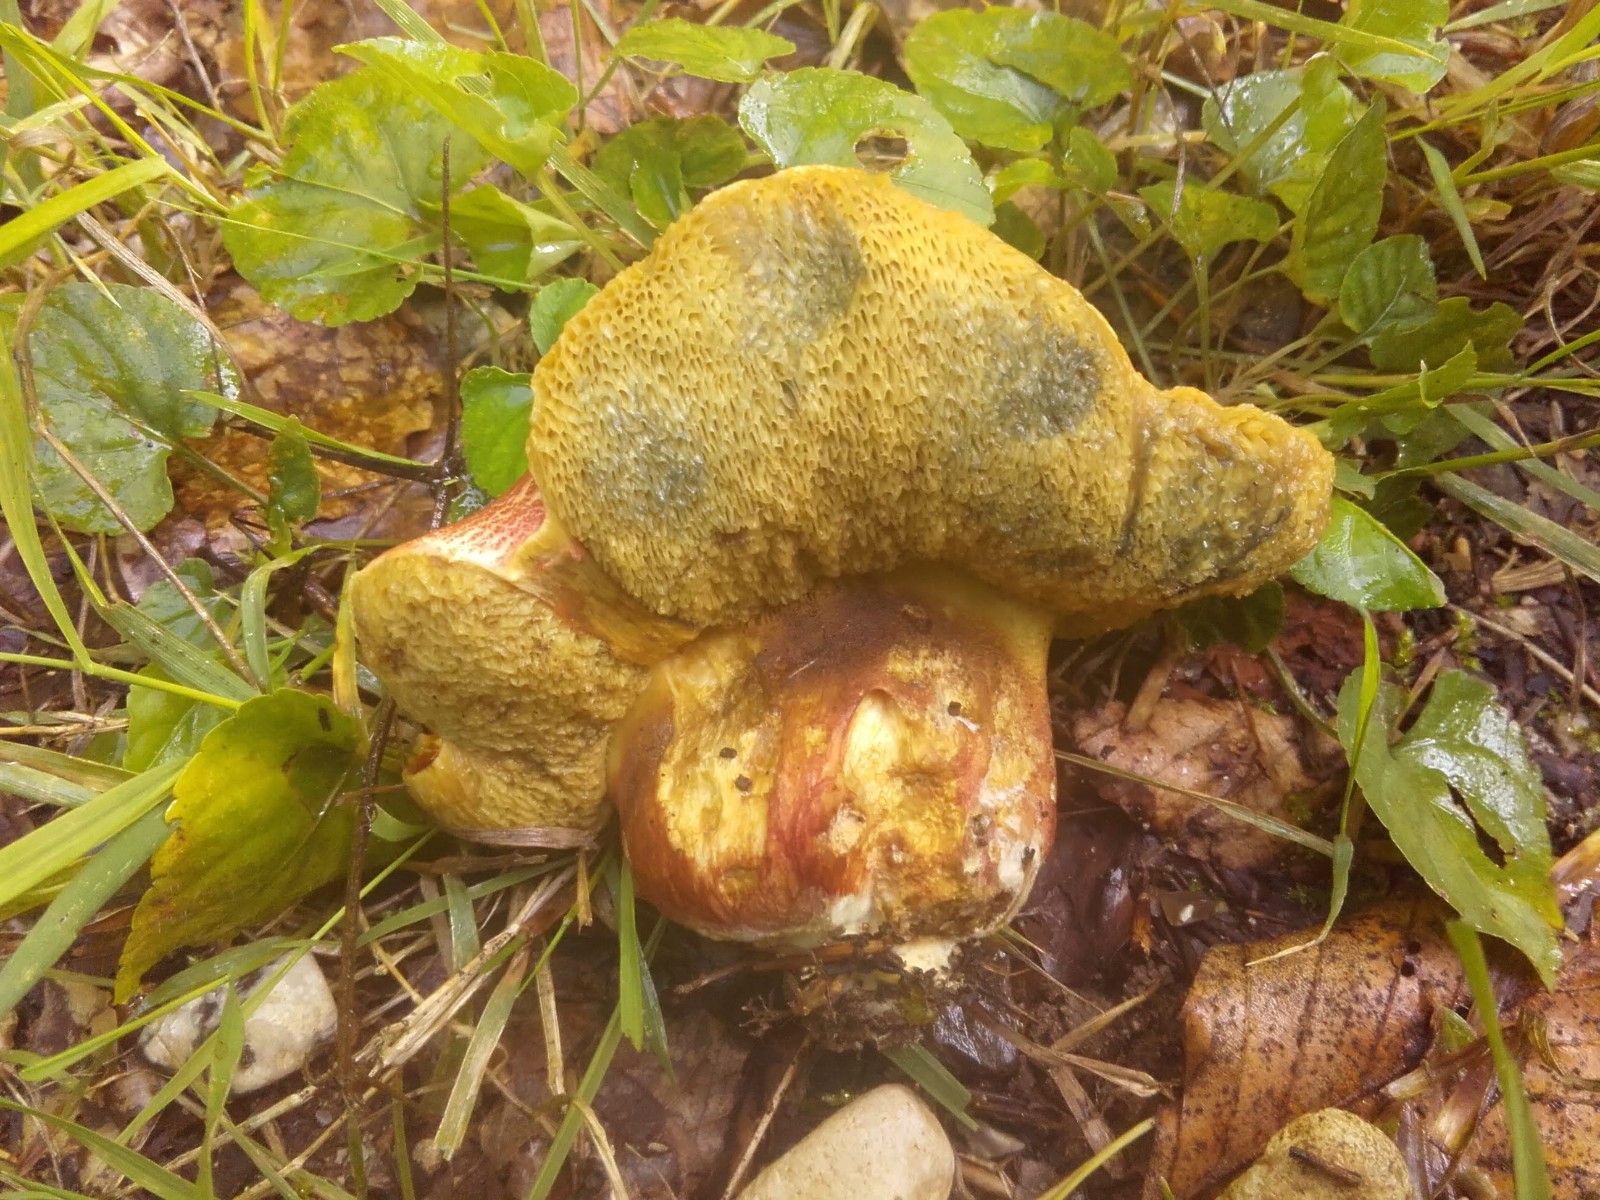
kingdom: Fungi
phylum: Basidiomycota
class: Agaricomycetes
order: Boletales
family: Boletaceae
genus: Hortiboletus
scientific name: Hortiboletus rubellus
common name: blodrød rørhat
